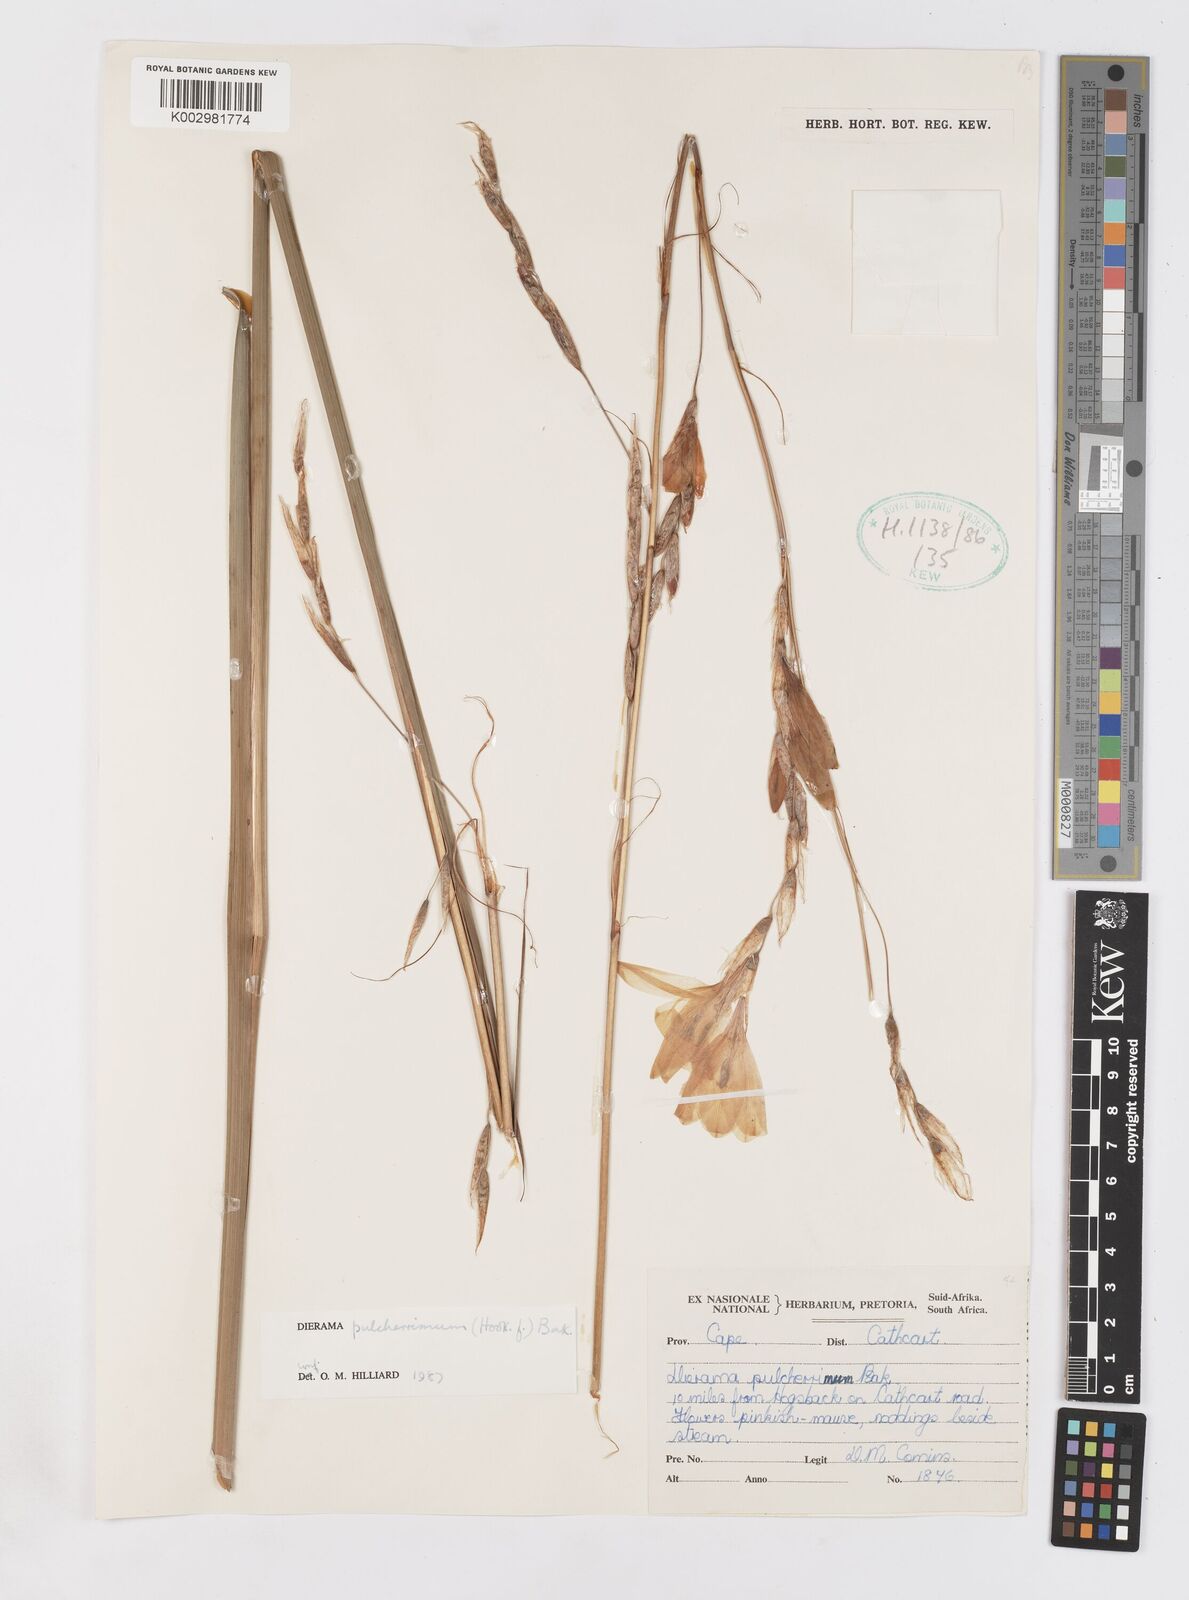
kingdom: Plantae
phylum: Tracheophyta
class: Liliopsida
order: Asparagales
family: Iridaceae
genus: Dierama
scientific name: Dierama pulcherrimum
